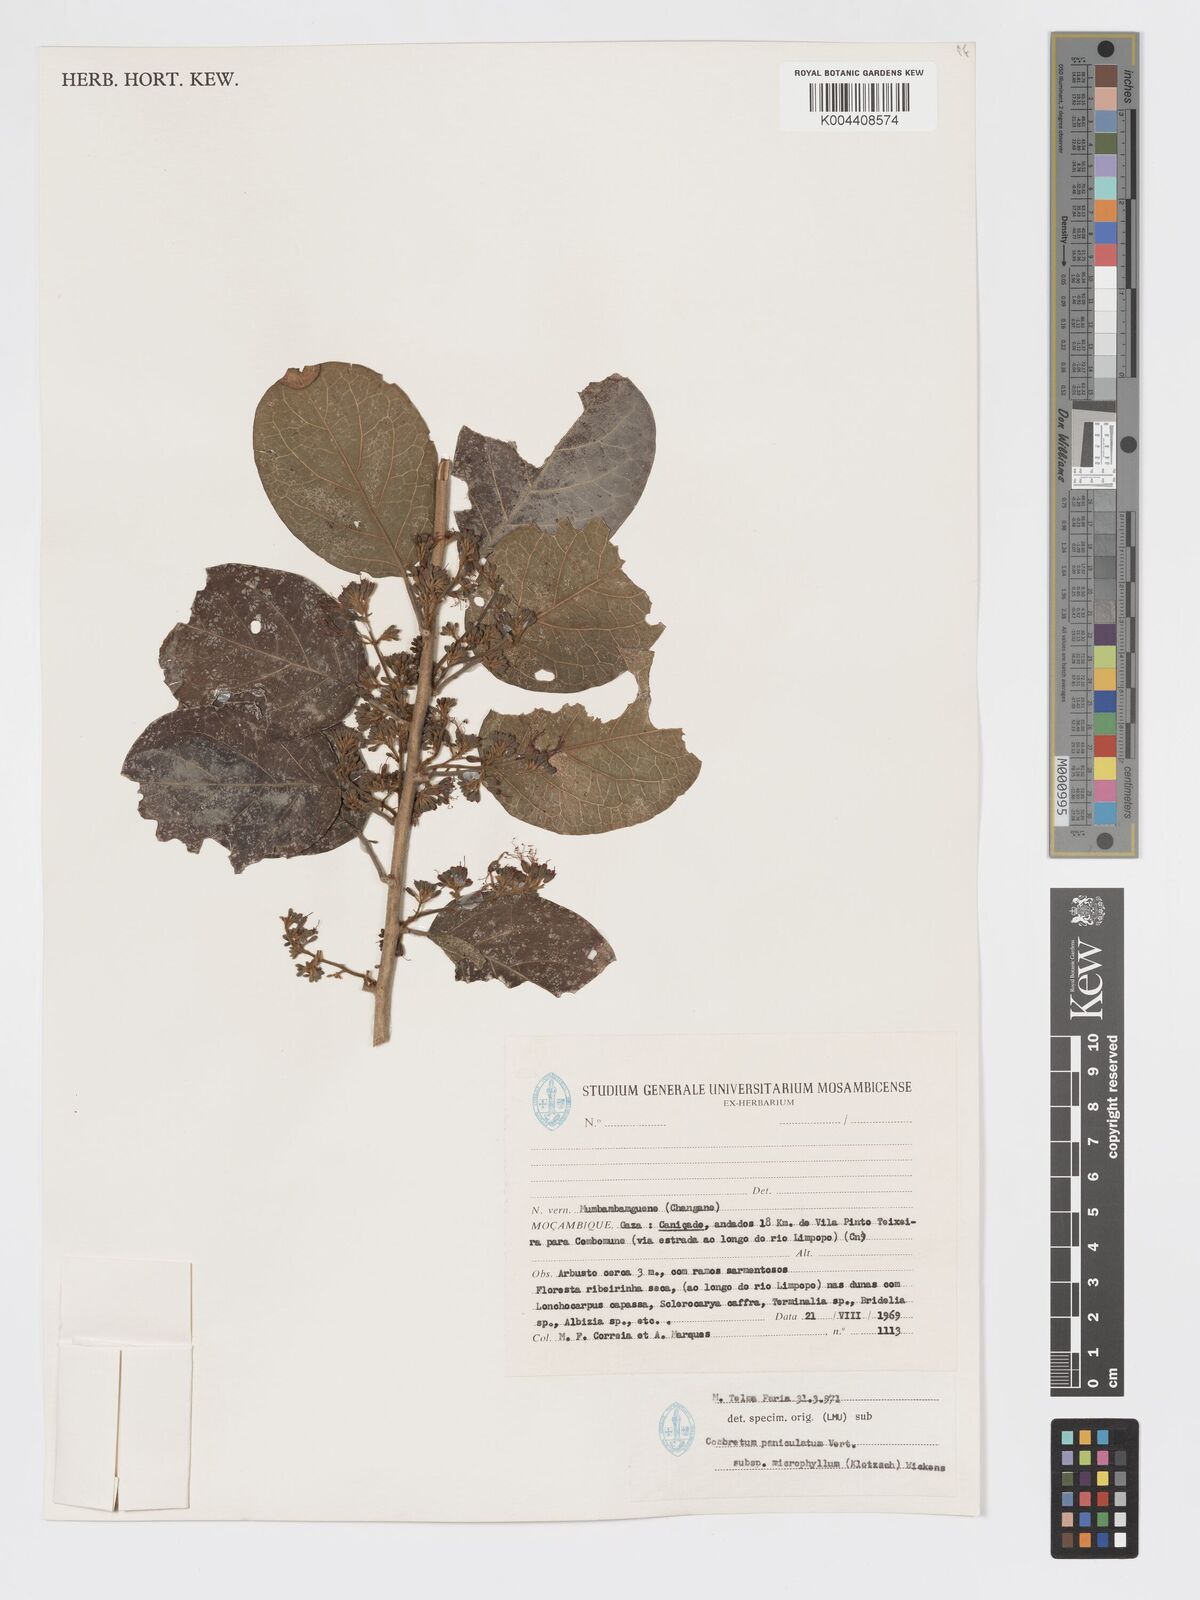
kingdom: Plantae
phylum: Tracheophyta
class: Magnoliopsida
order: Myrtales
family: Combretaceae
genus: Combretum
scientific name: Combretum microphyllum
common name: Burningbush
